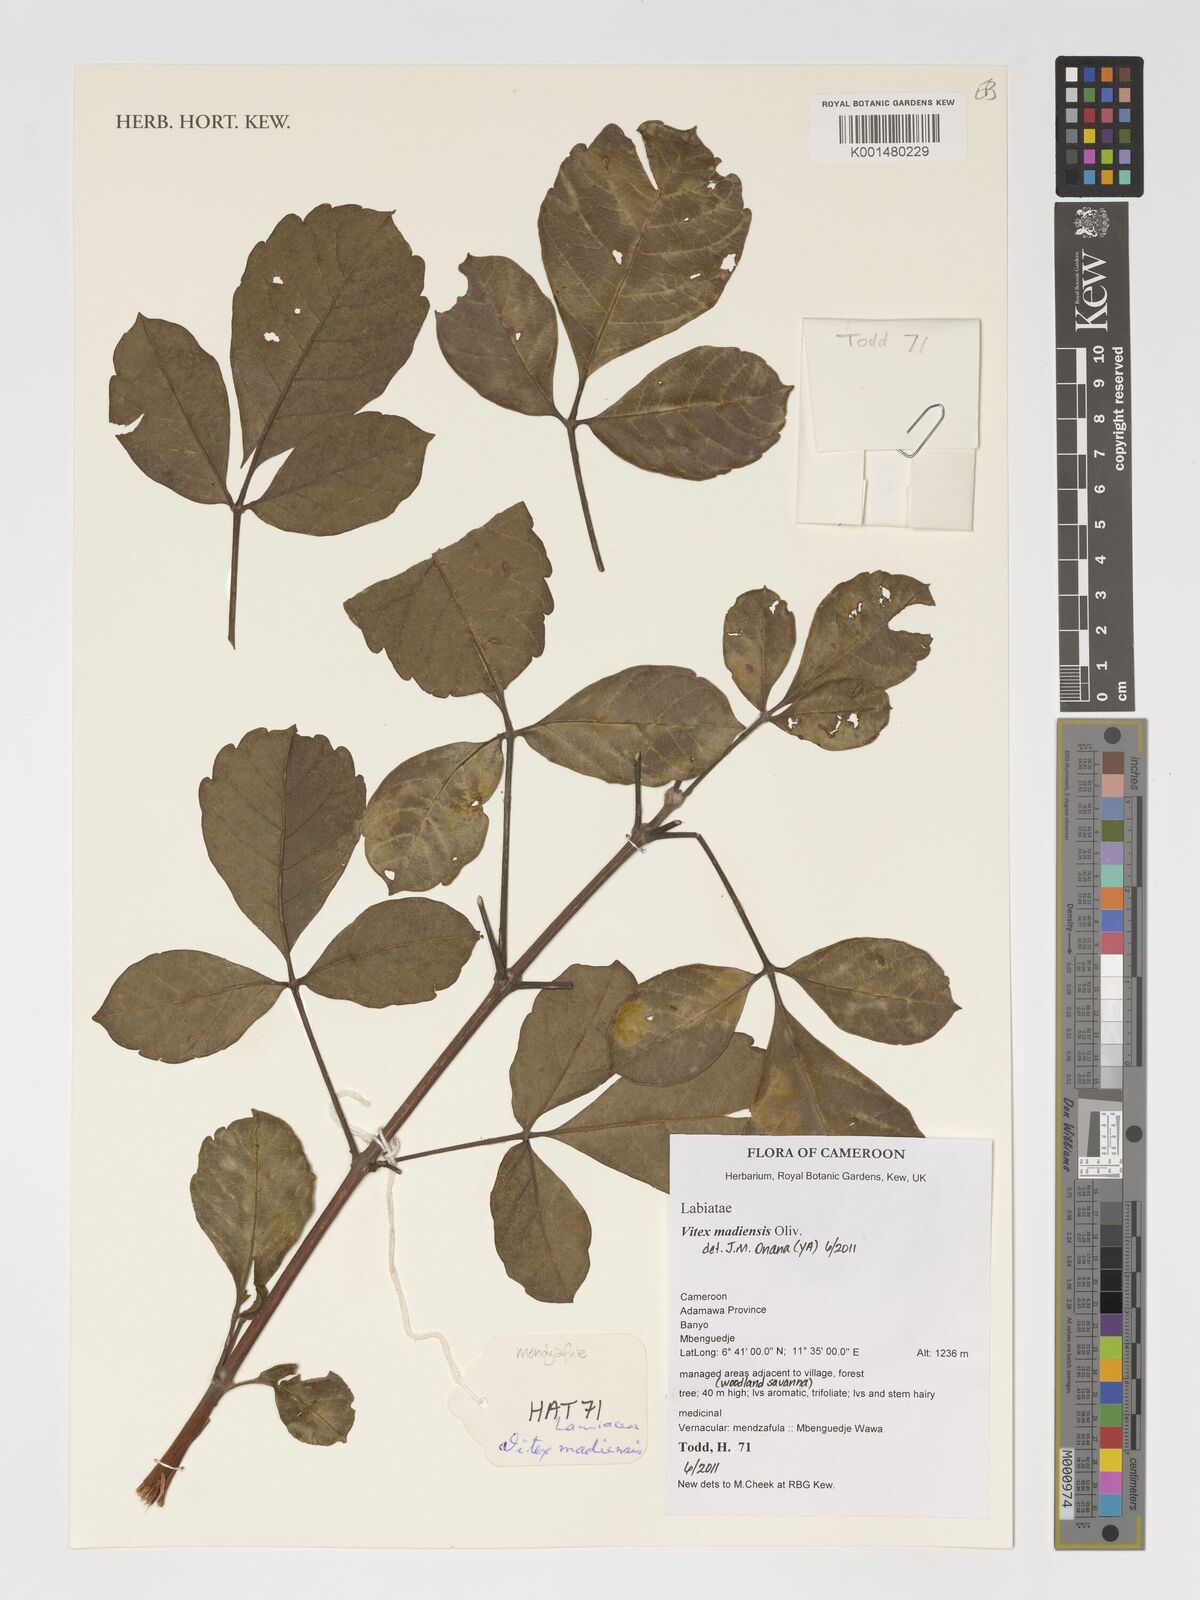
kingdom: Plantae
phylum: Tracheophyta
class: Magnoliopsida
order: Lamiales
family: Lamiaceae
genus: Vitex
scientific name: Vitex madiensis
